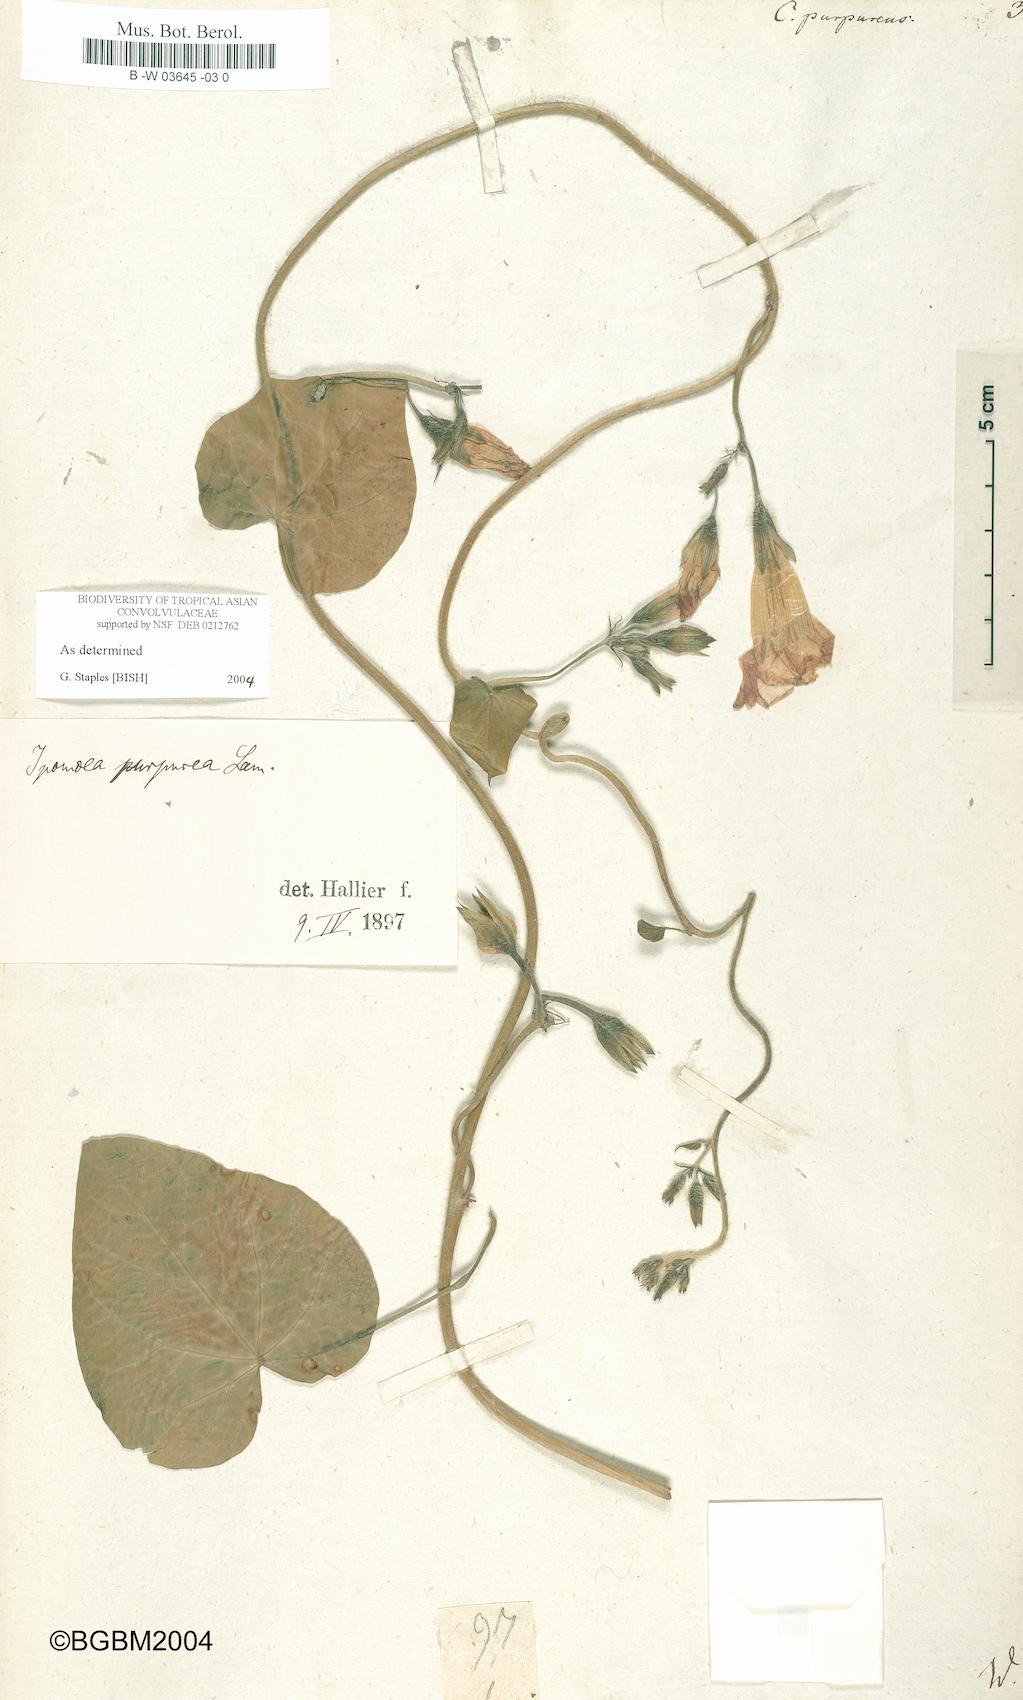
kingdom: Plantae
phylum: Tracheophyta
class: Magnoliopsida
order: Solanales
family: Convolvulaceae
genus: Ipomoea
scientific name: Ipomoea purpurea
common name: Common morning-glory
